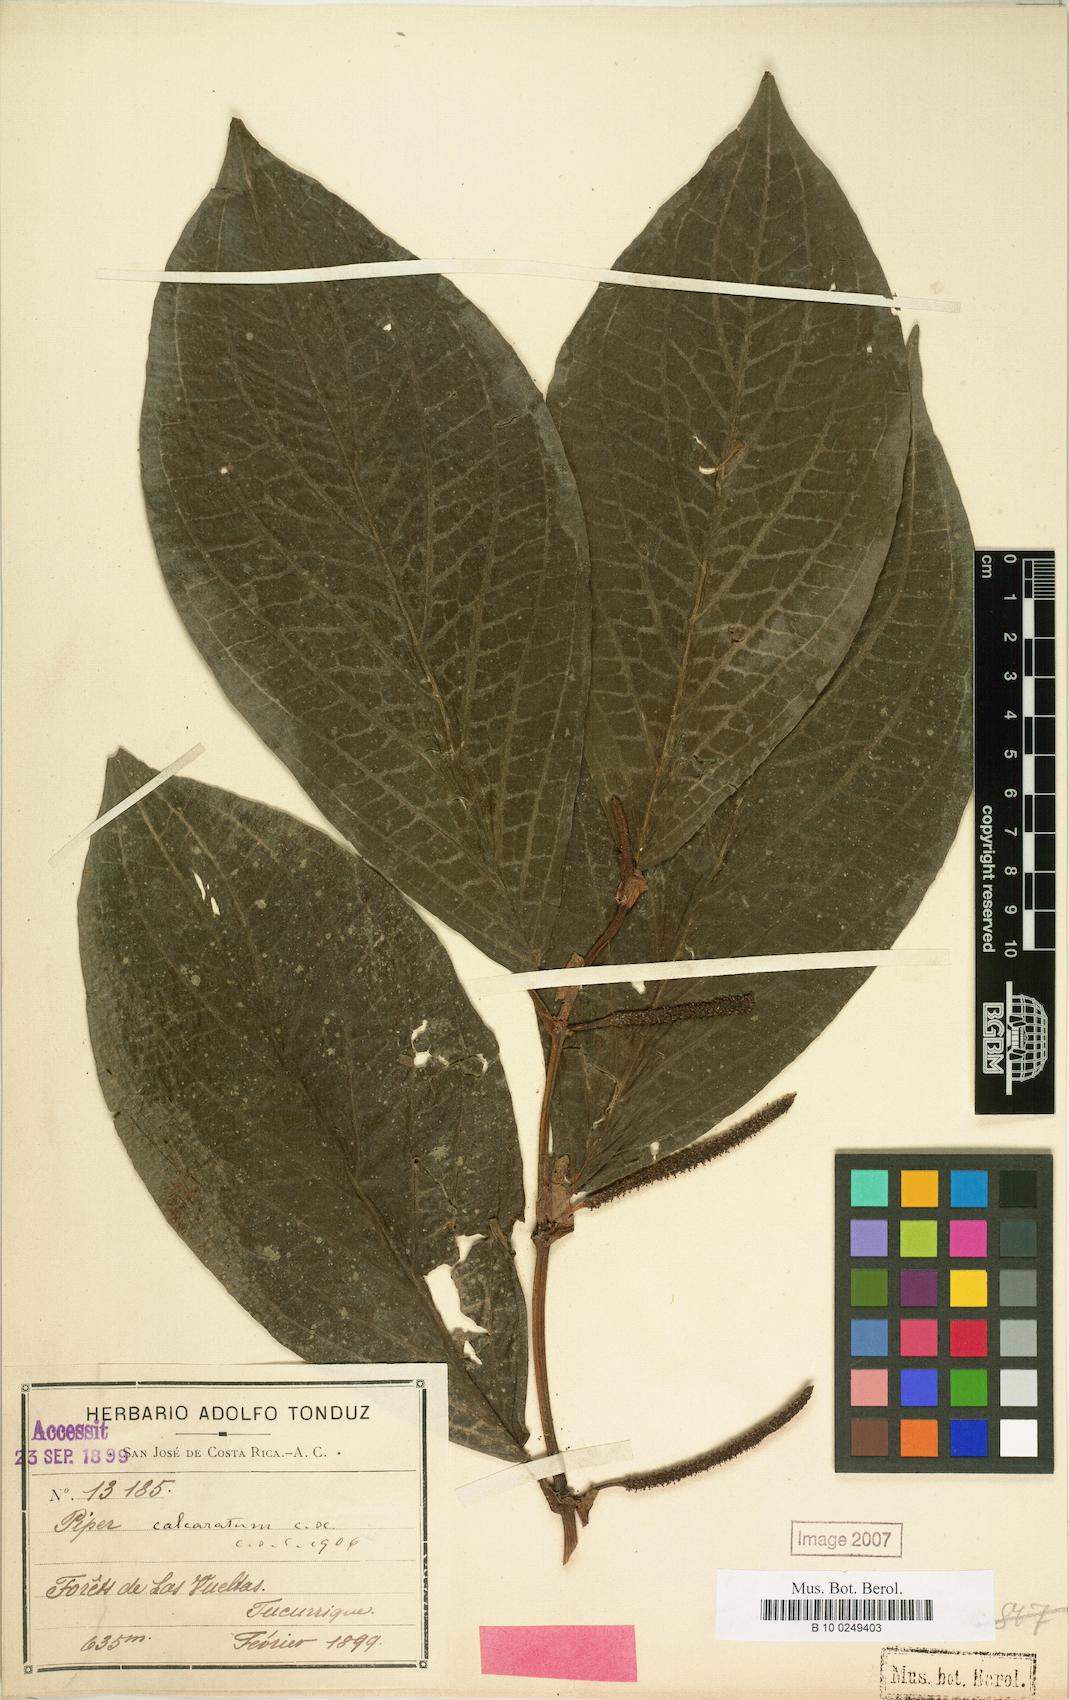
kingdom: Plantae
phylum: Tracheophyta
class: Magnoliopsida
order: Piperales
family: Piperaceae
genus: Piper
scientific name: Piper calcaratum
